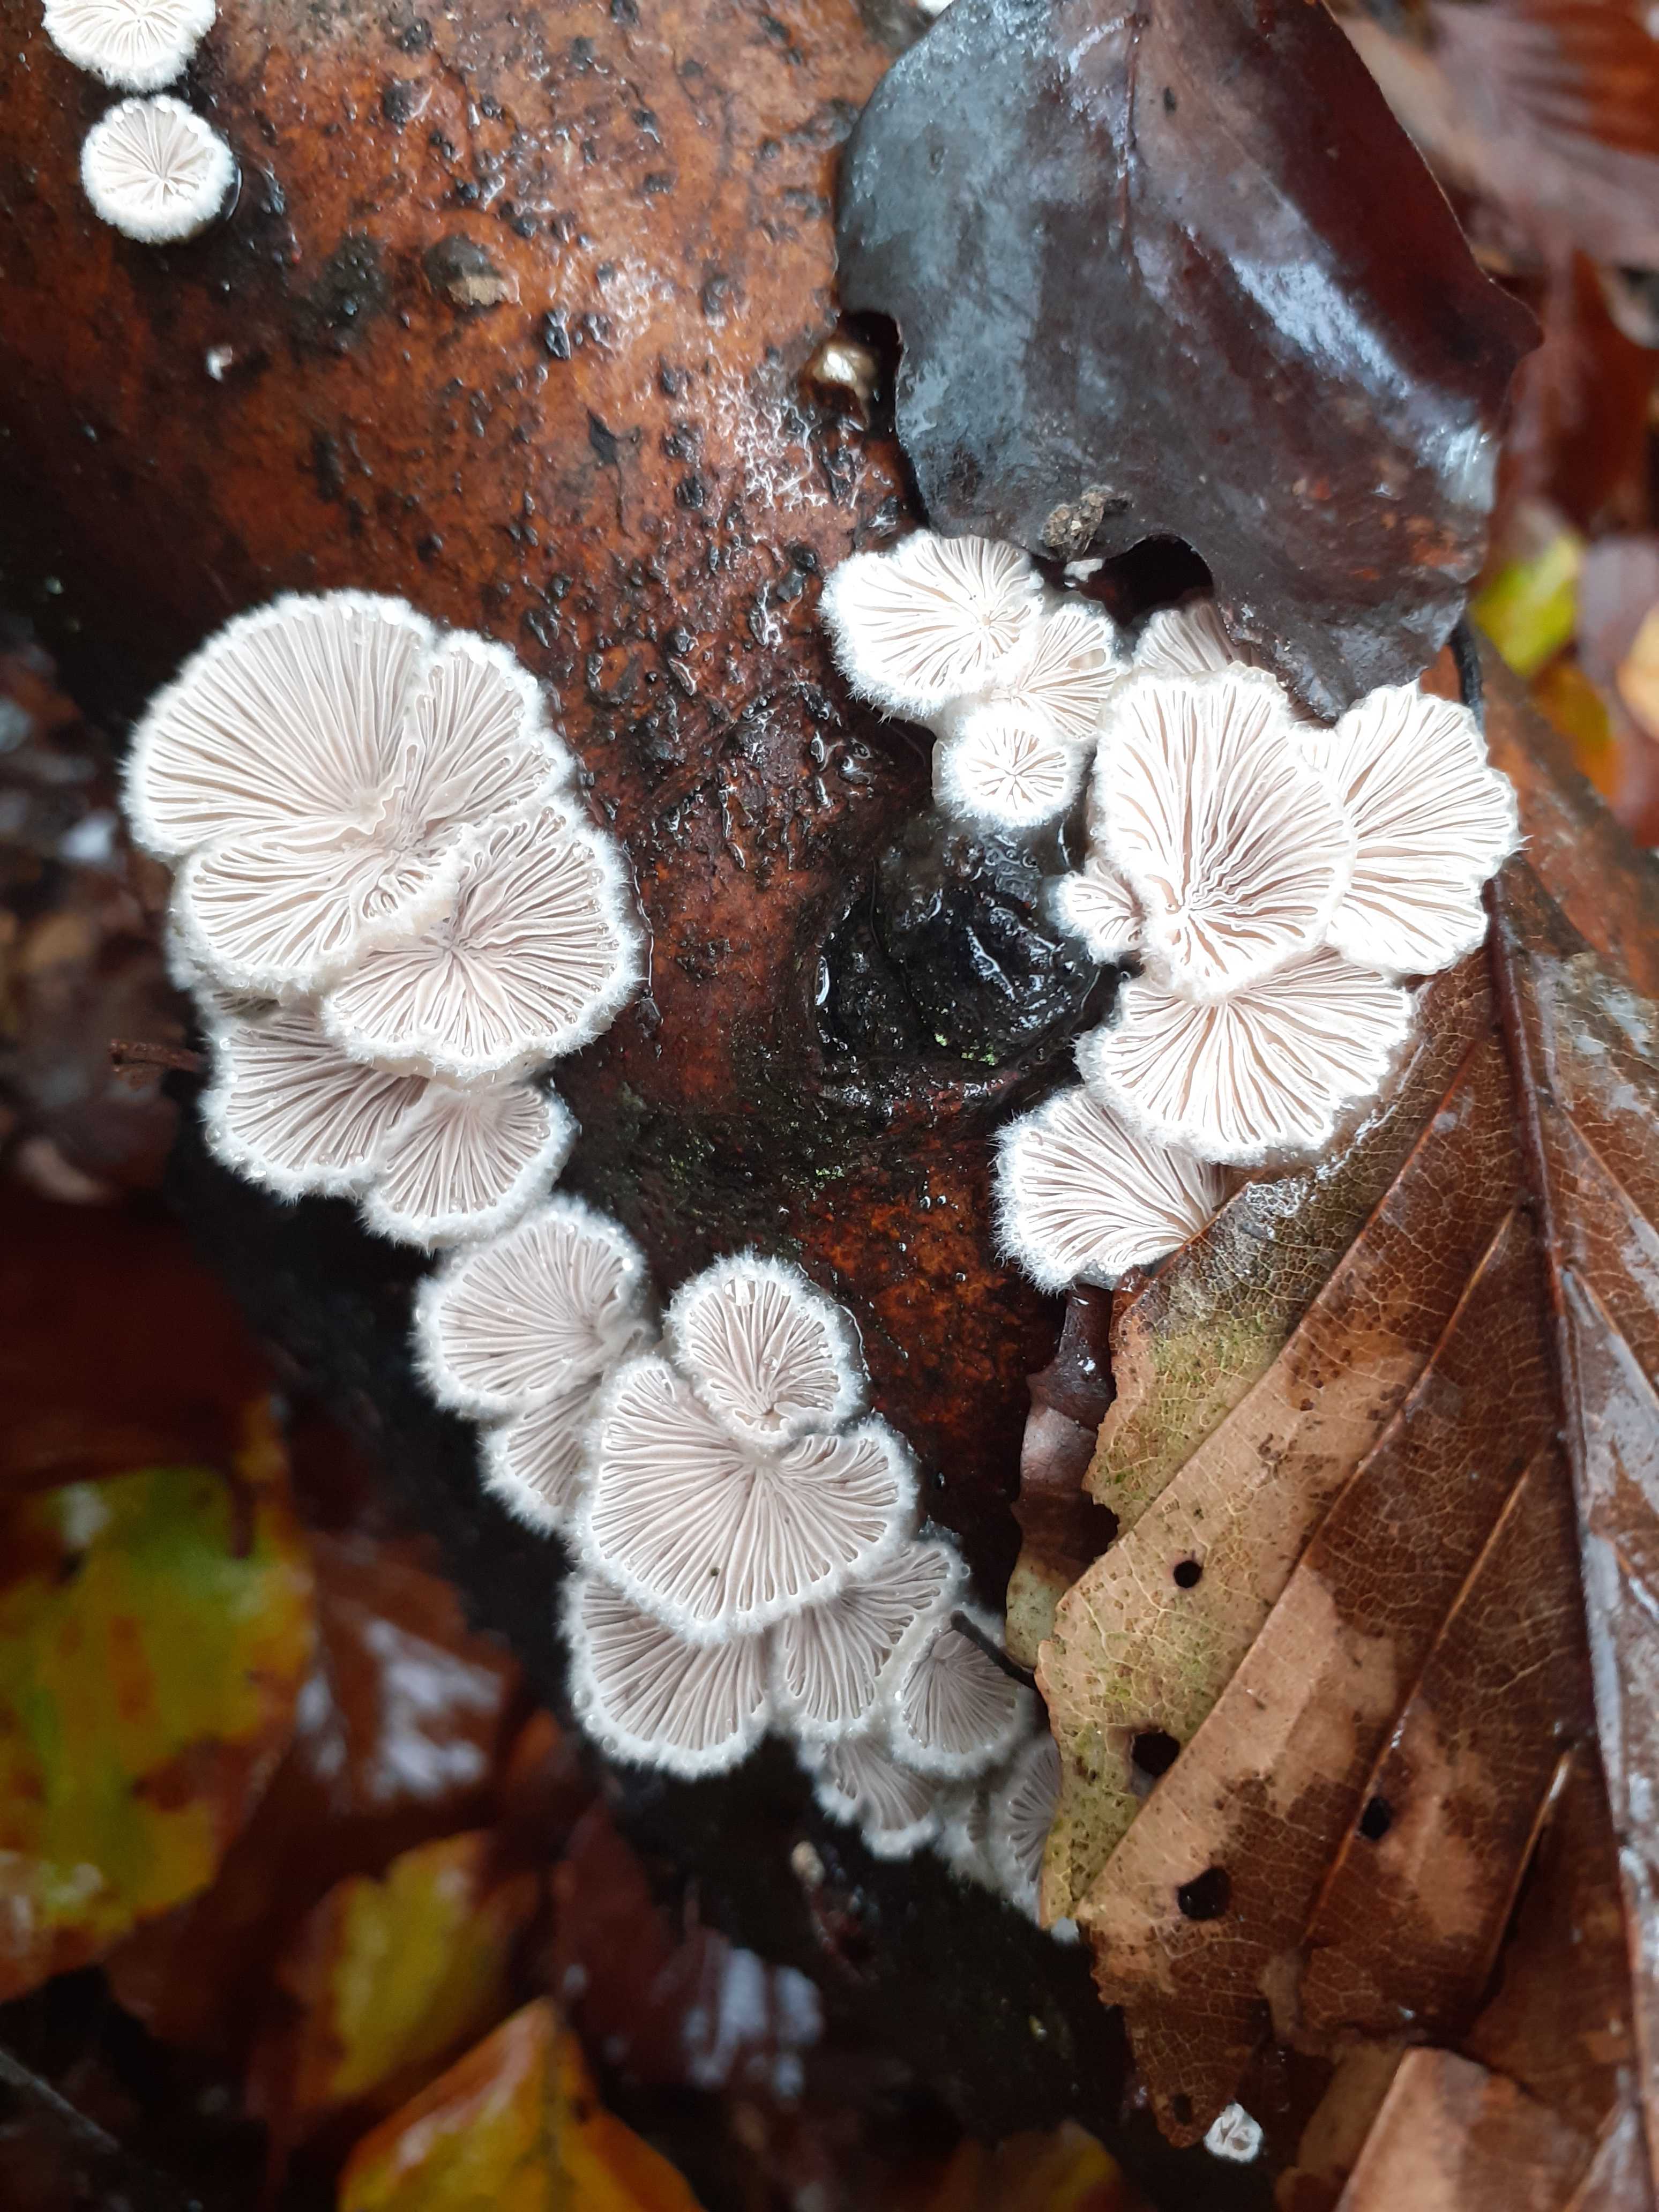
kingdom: Fungi
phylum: Basidiomycota
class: Agaricomycetes
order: Agaricales
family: Schizophyllaceae
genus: Schizophyllum
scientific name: Schizophyllum commune
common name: kløvblad
